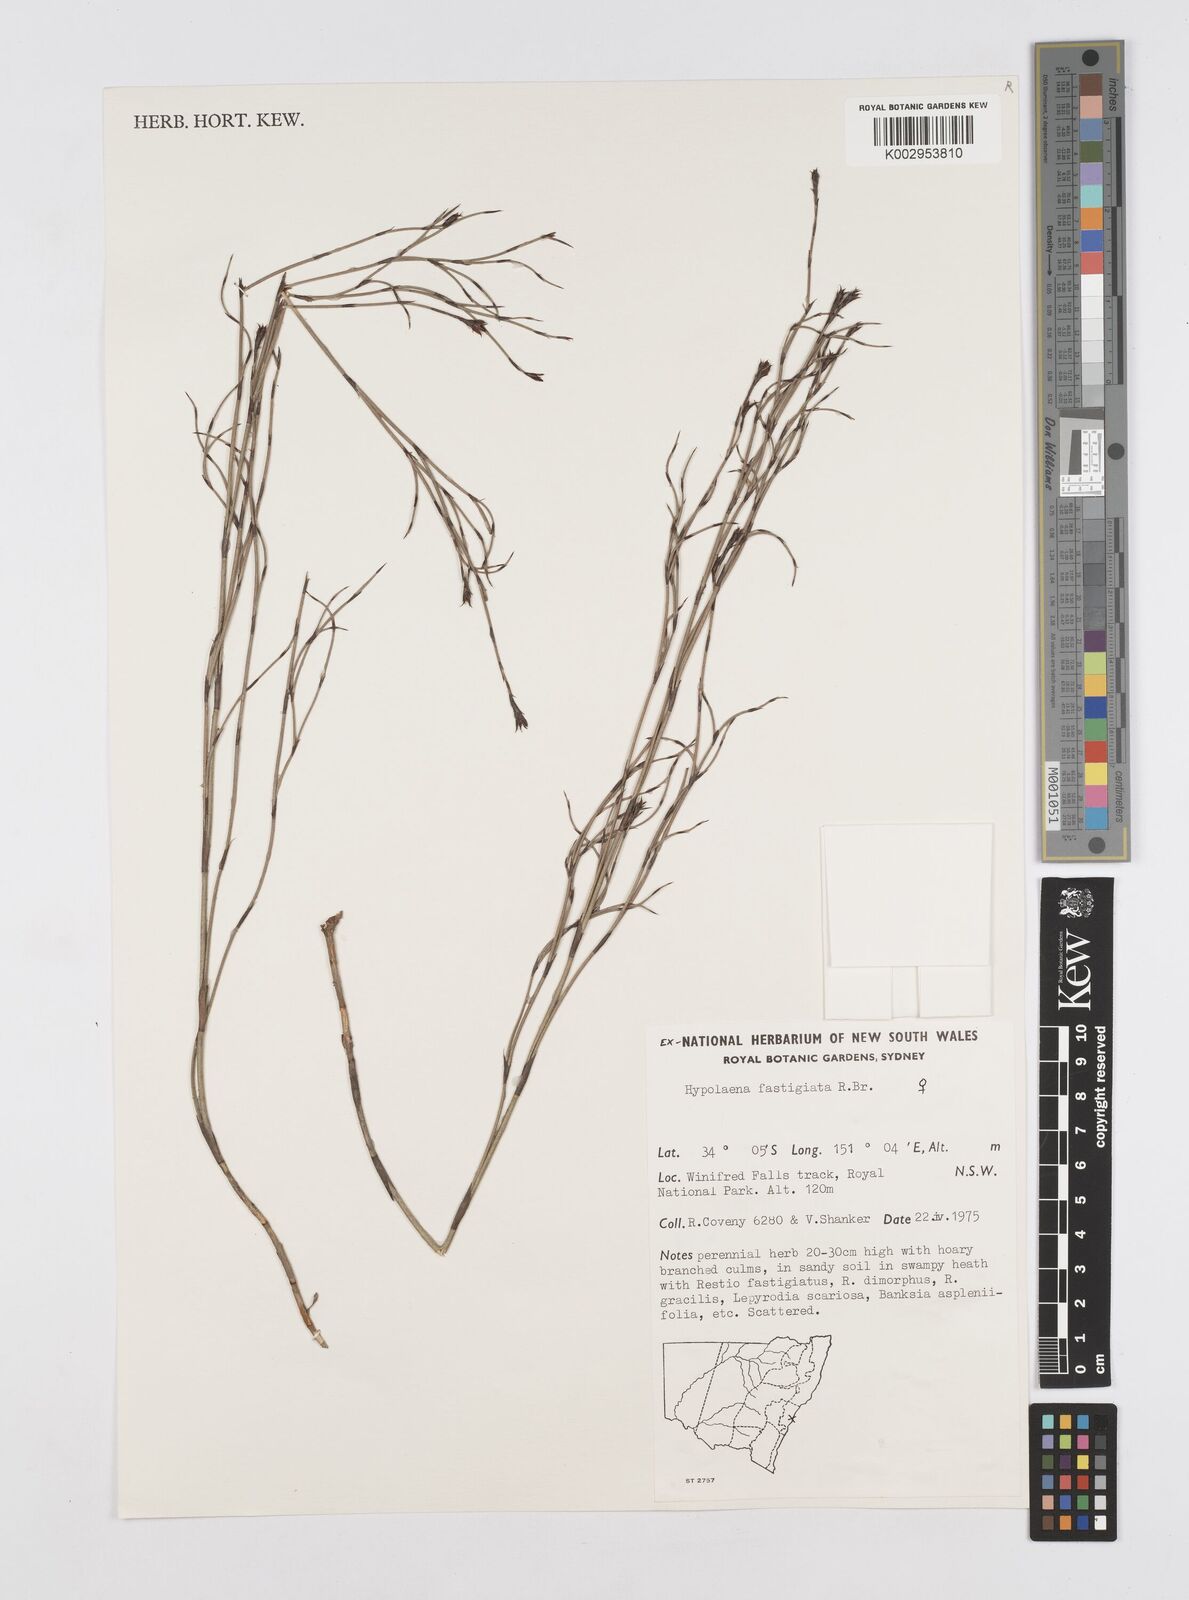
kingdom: Plantae
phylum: Tracheophyta
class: Liliopsida
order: Poales
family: Restionaceae
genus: Hypolaena
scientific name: Hypolaena fastigiata
